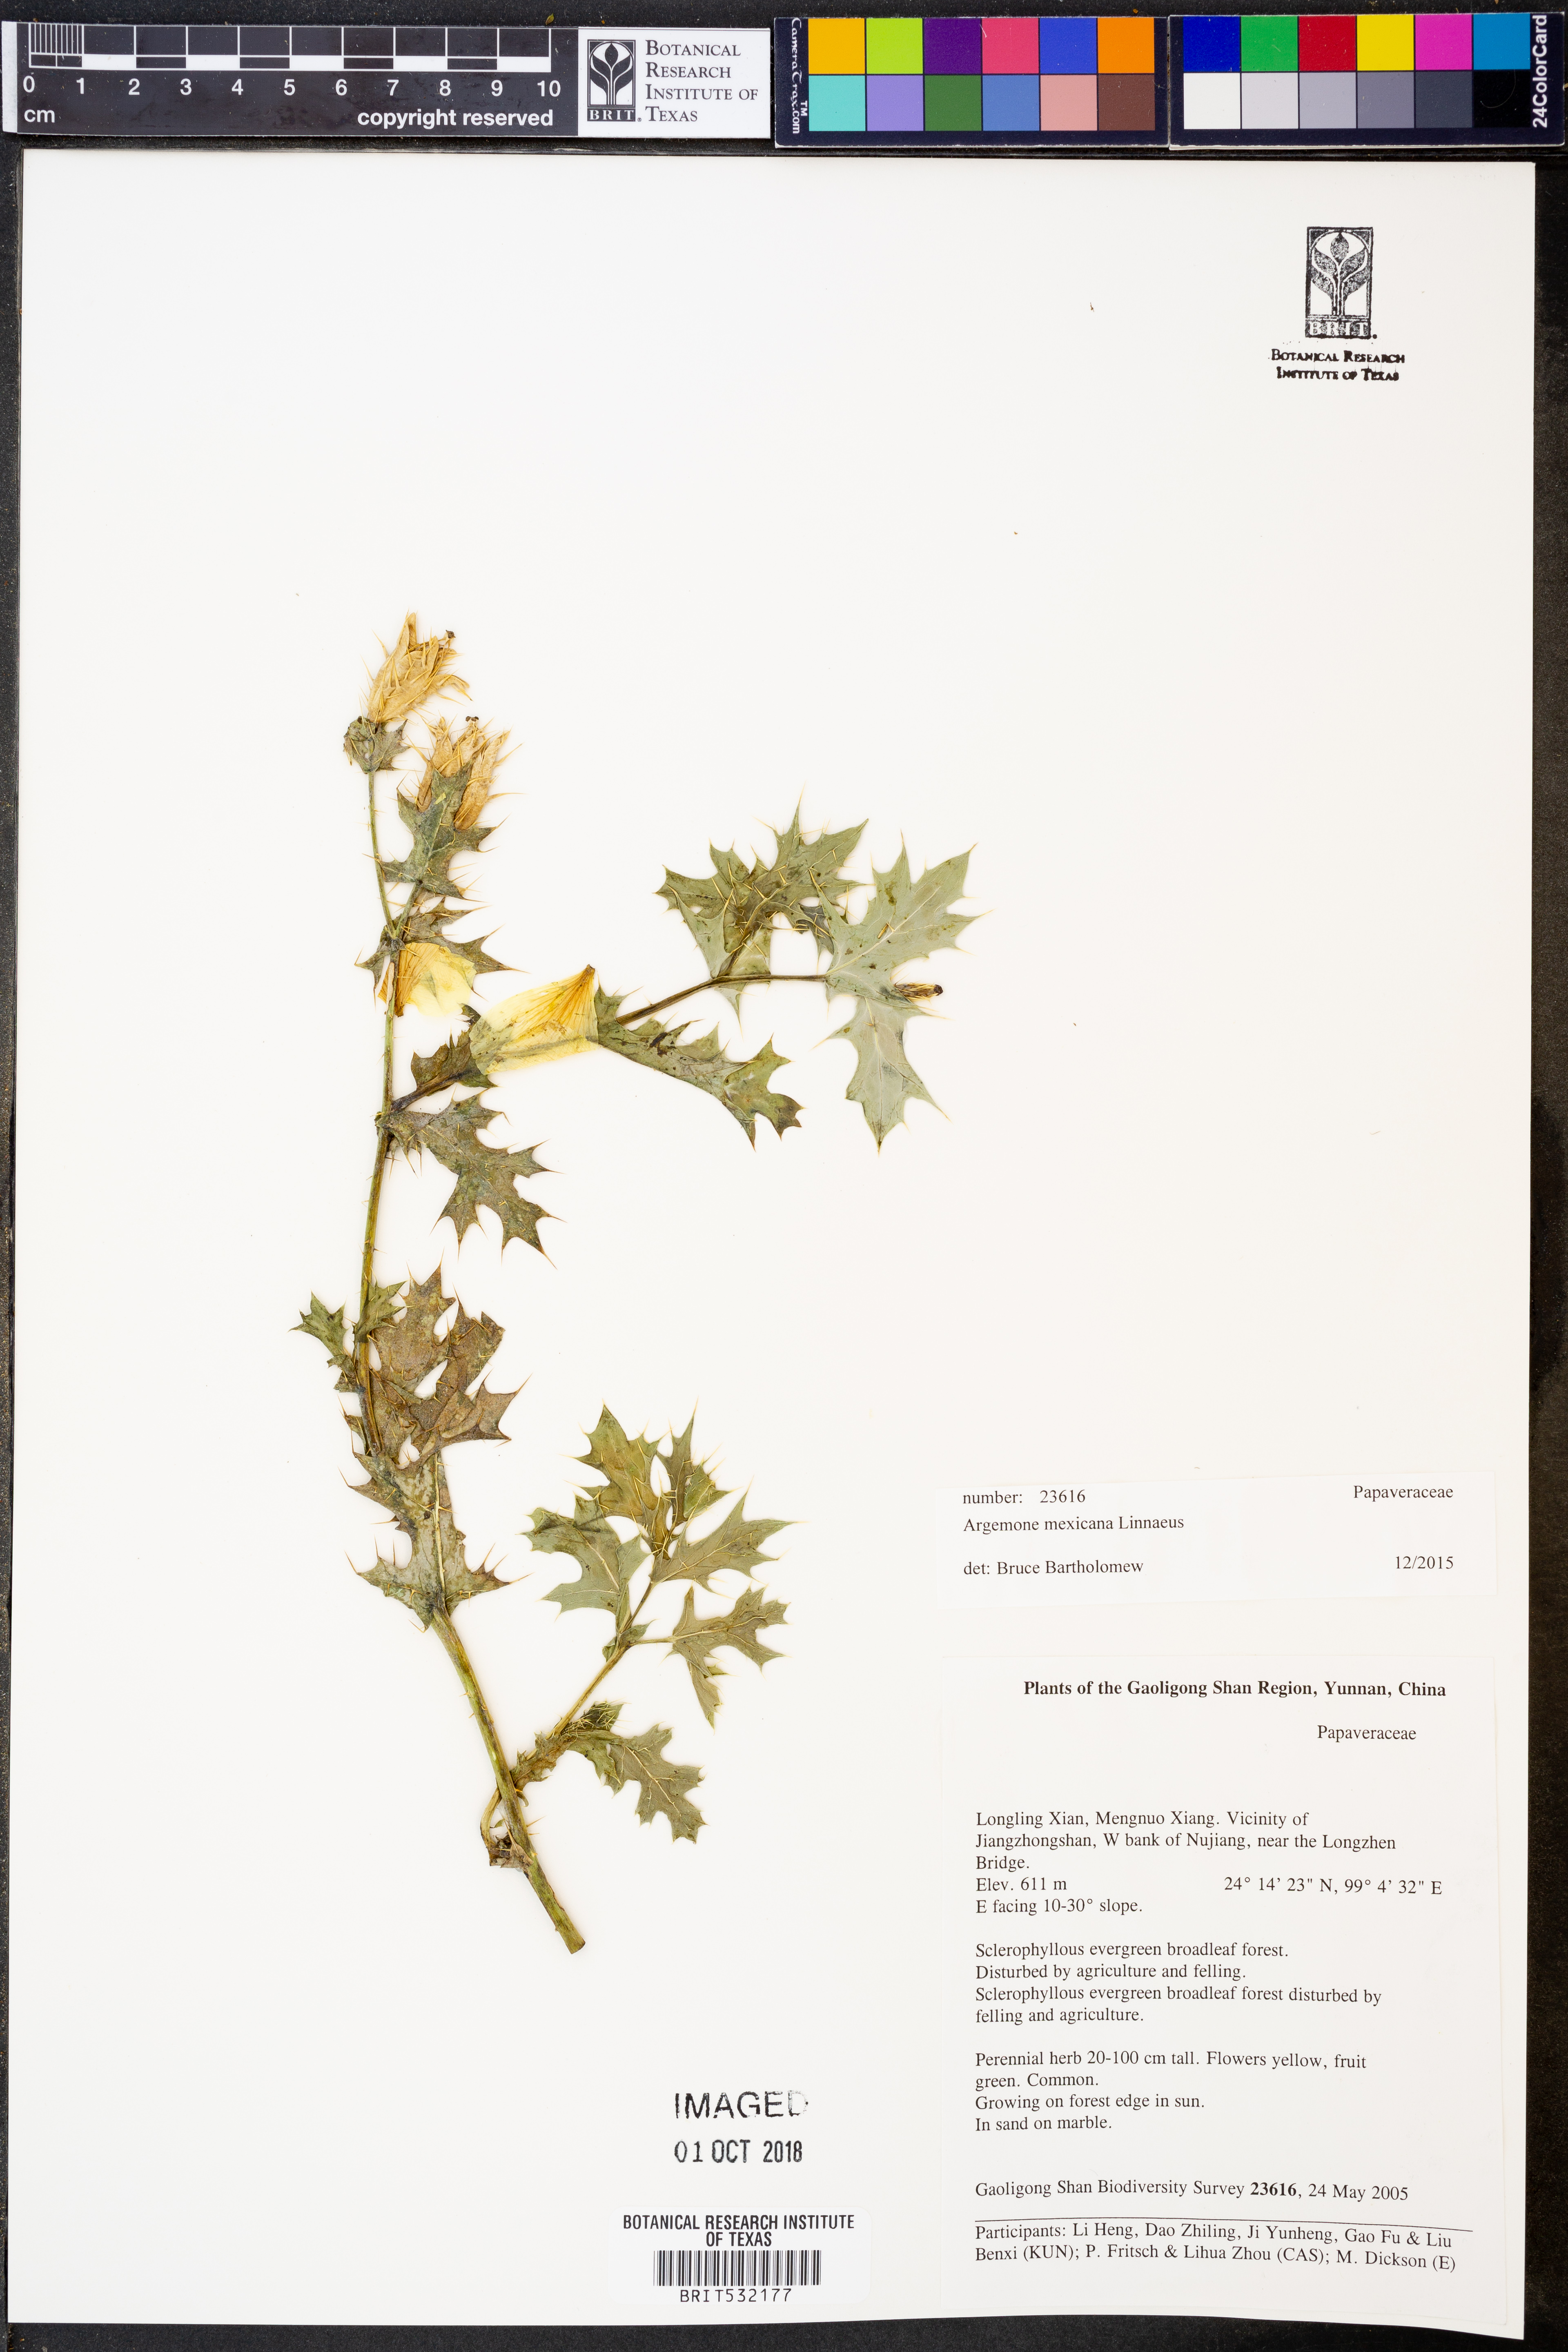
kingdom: Plantae
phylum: Tracheophyta
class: Magnoliopsida
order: Ranunculales
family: Papaveraceae
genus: Argemone
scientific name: Argemone mexicana
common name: Mexican poppy
